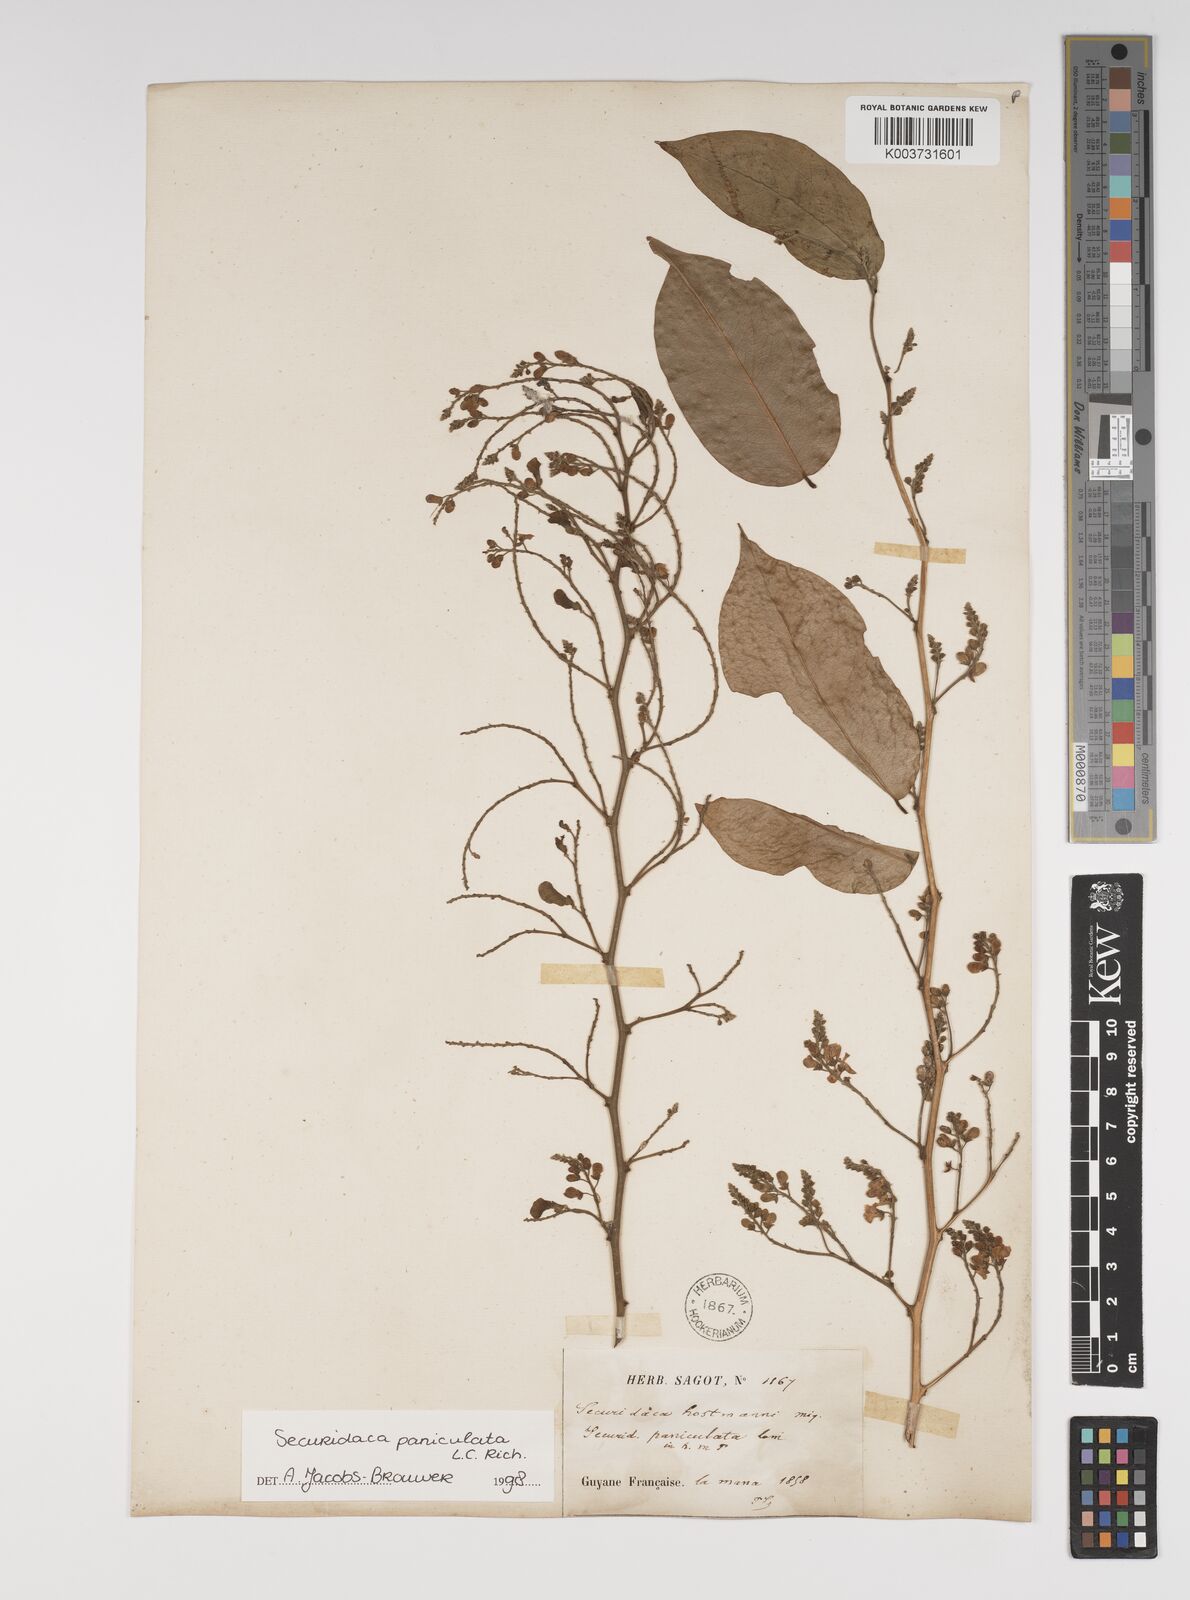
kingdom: Plantae
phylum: Tracheophyta
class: Magnoliopsida
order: Fabales
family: Polygalaceae
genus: Securidaca
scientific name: Securidaca paniculata
